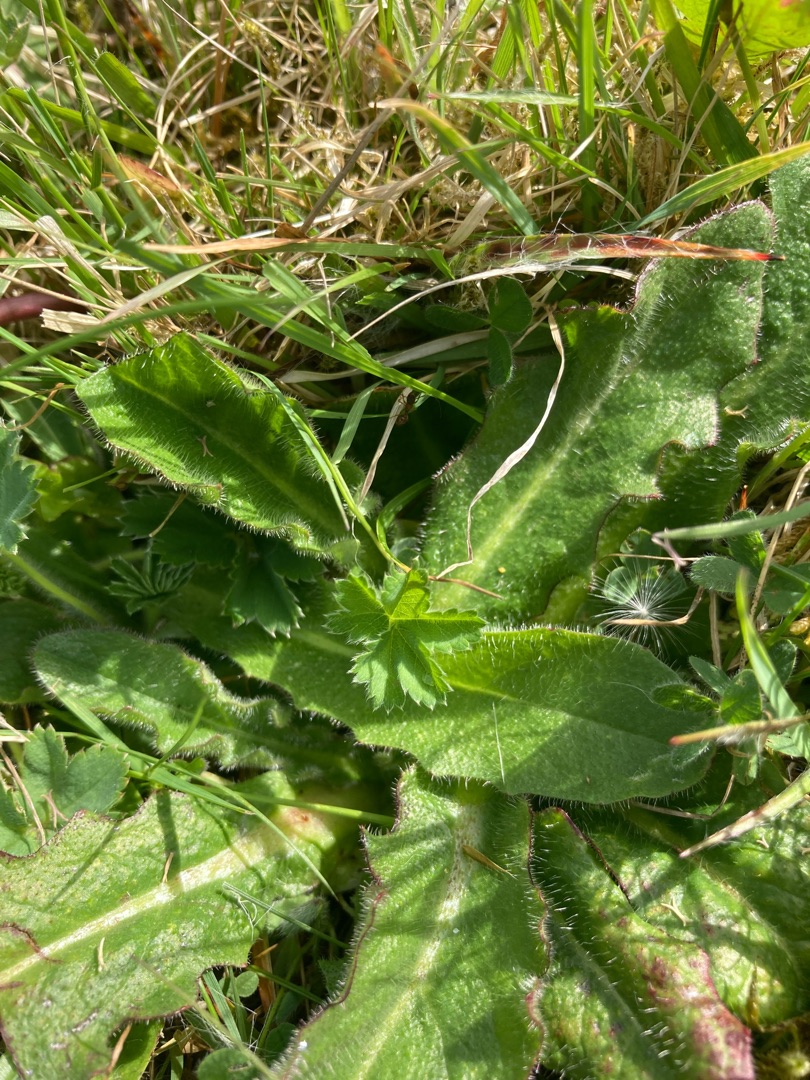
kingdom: Plantae
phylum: Tracheophyta
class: Magnoliopsida
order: Asterales
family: Asteraceae
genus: Hypochaeris
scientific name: Hypochaeris radicata
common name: Almindelig kongepen
